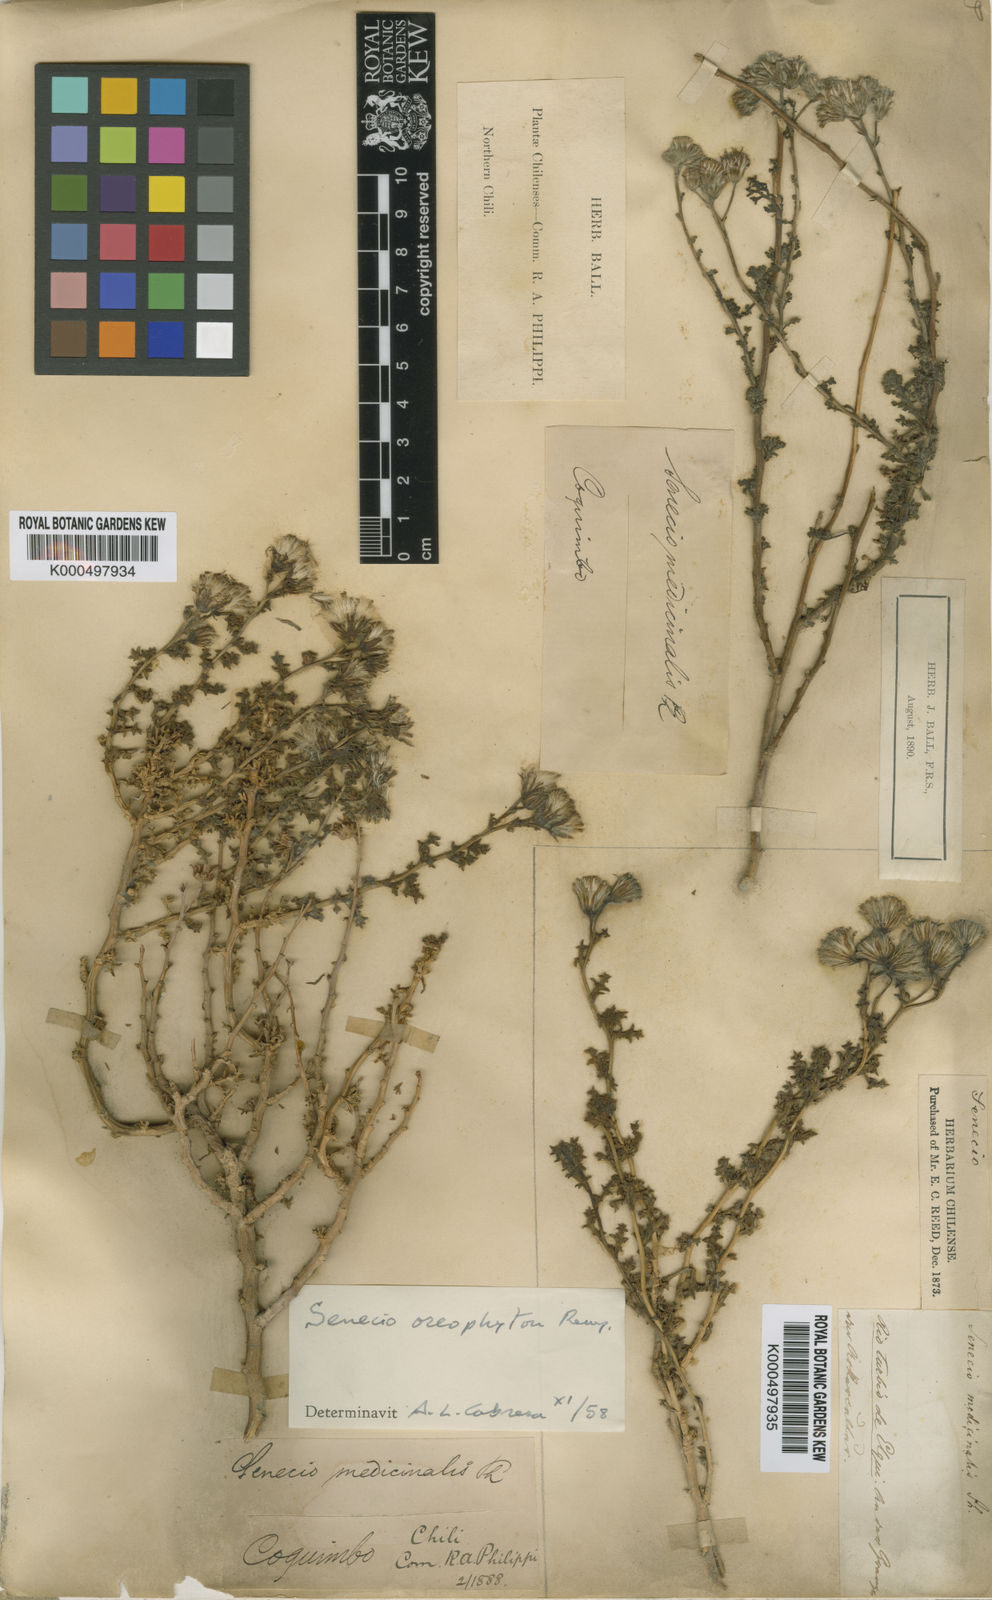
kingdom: Plantae
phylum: Tracheophyta
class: Magnoliopsida
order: Asterales
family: Asteraceae
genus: Senecio
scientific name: Senecio oreophyton
